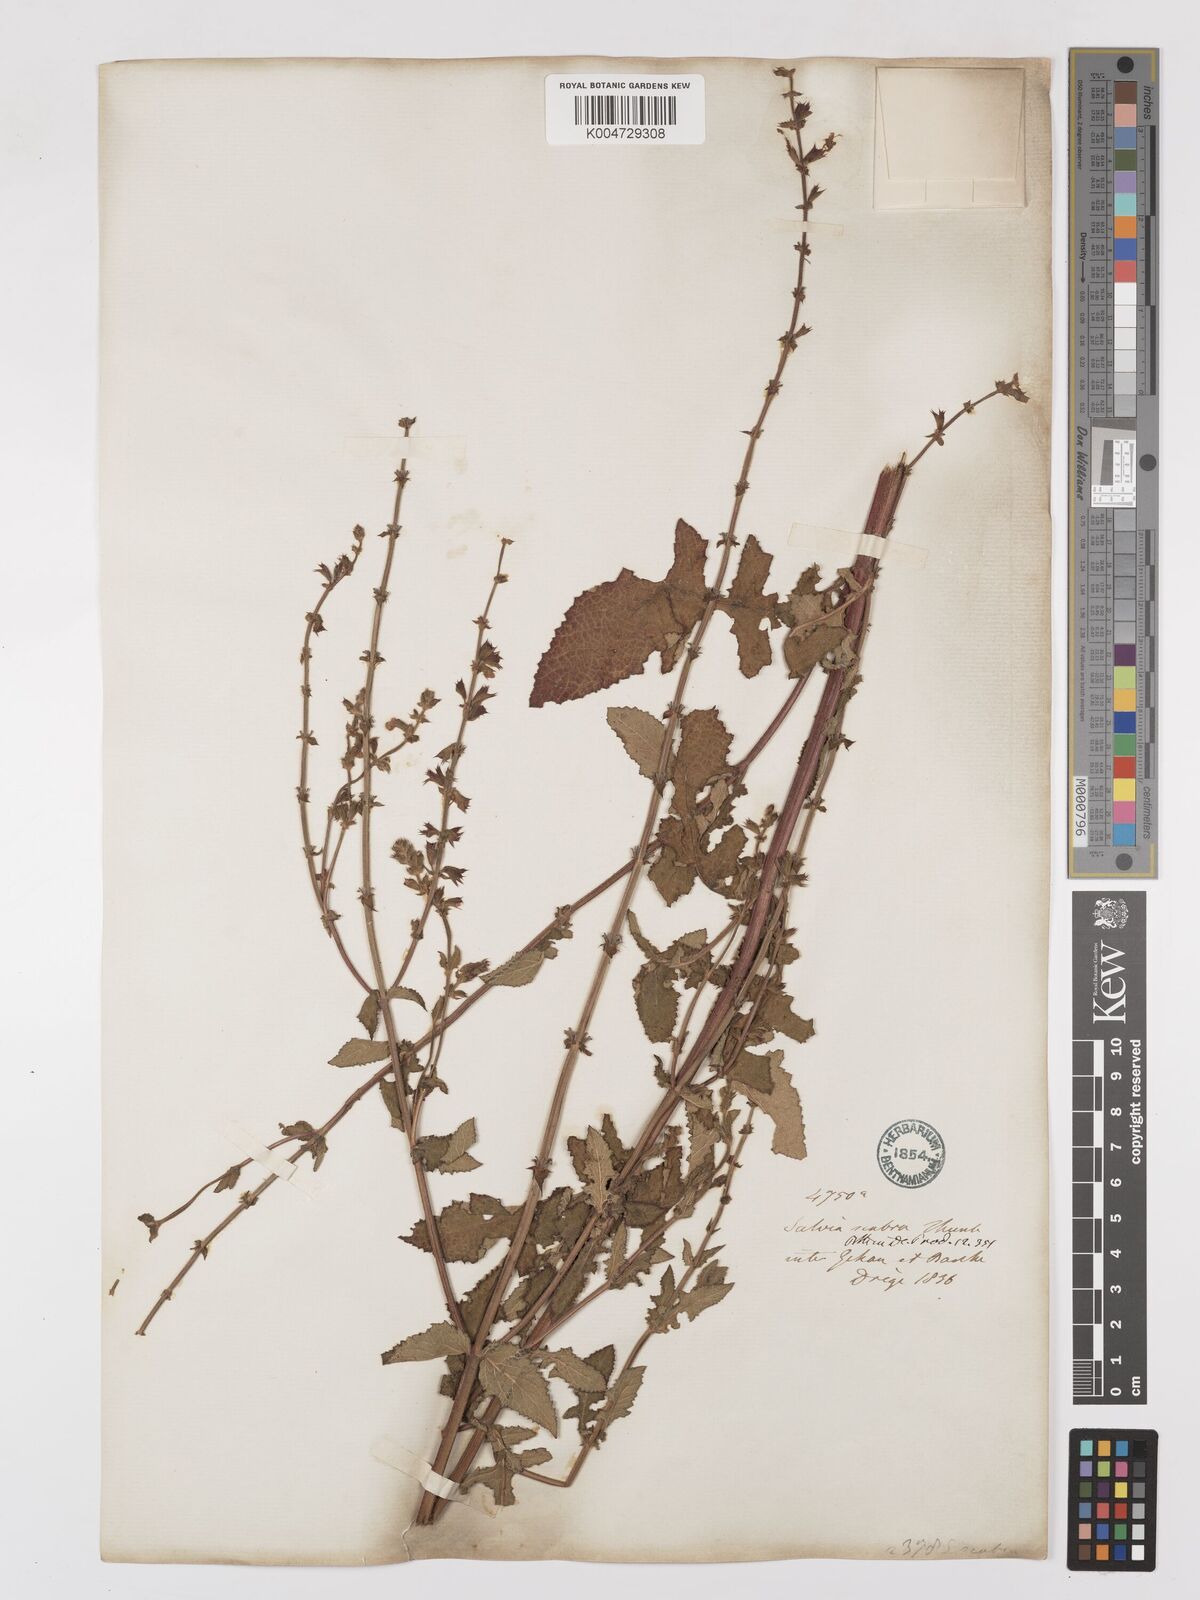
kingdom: Plantae
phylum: Tracheophyta
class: Magnoliopsida
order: Lamiales
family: Lamiaceae
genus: Salvia
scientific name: Salvia runcinata
